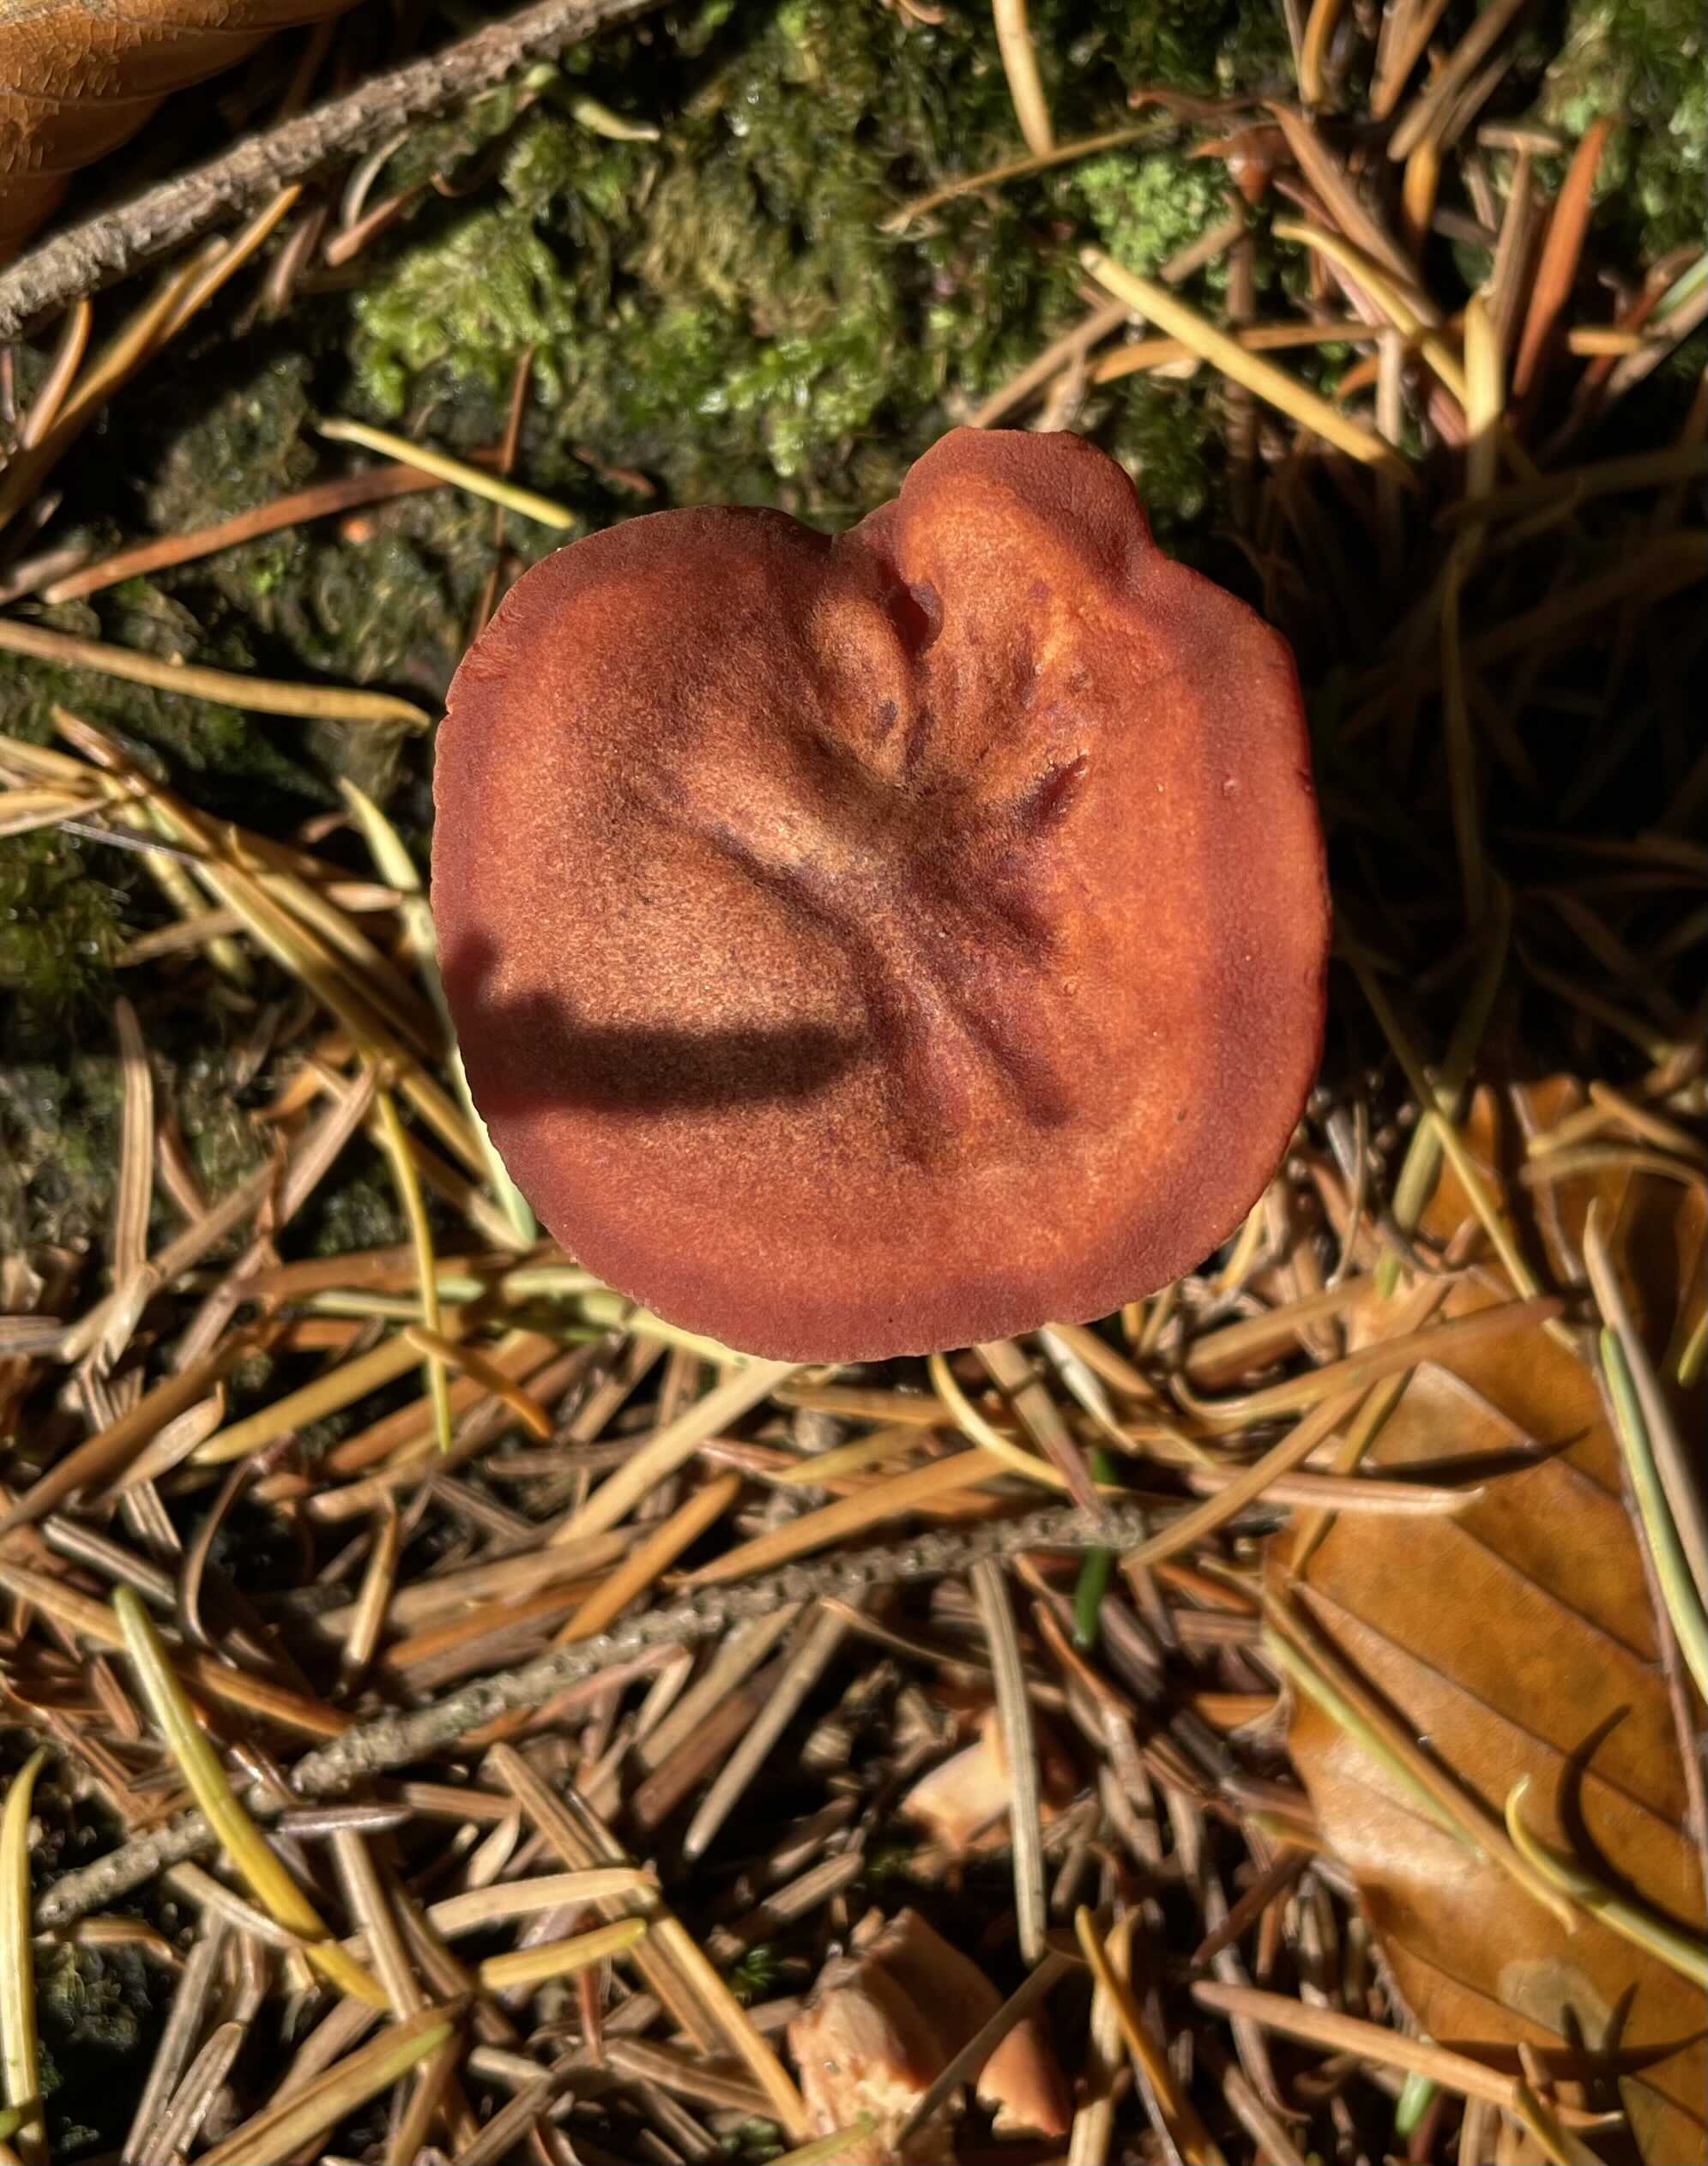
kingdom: Fungi
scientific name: Fungi
